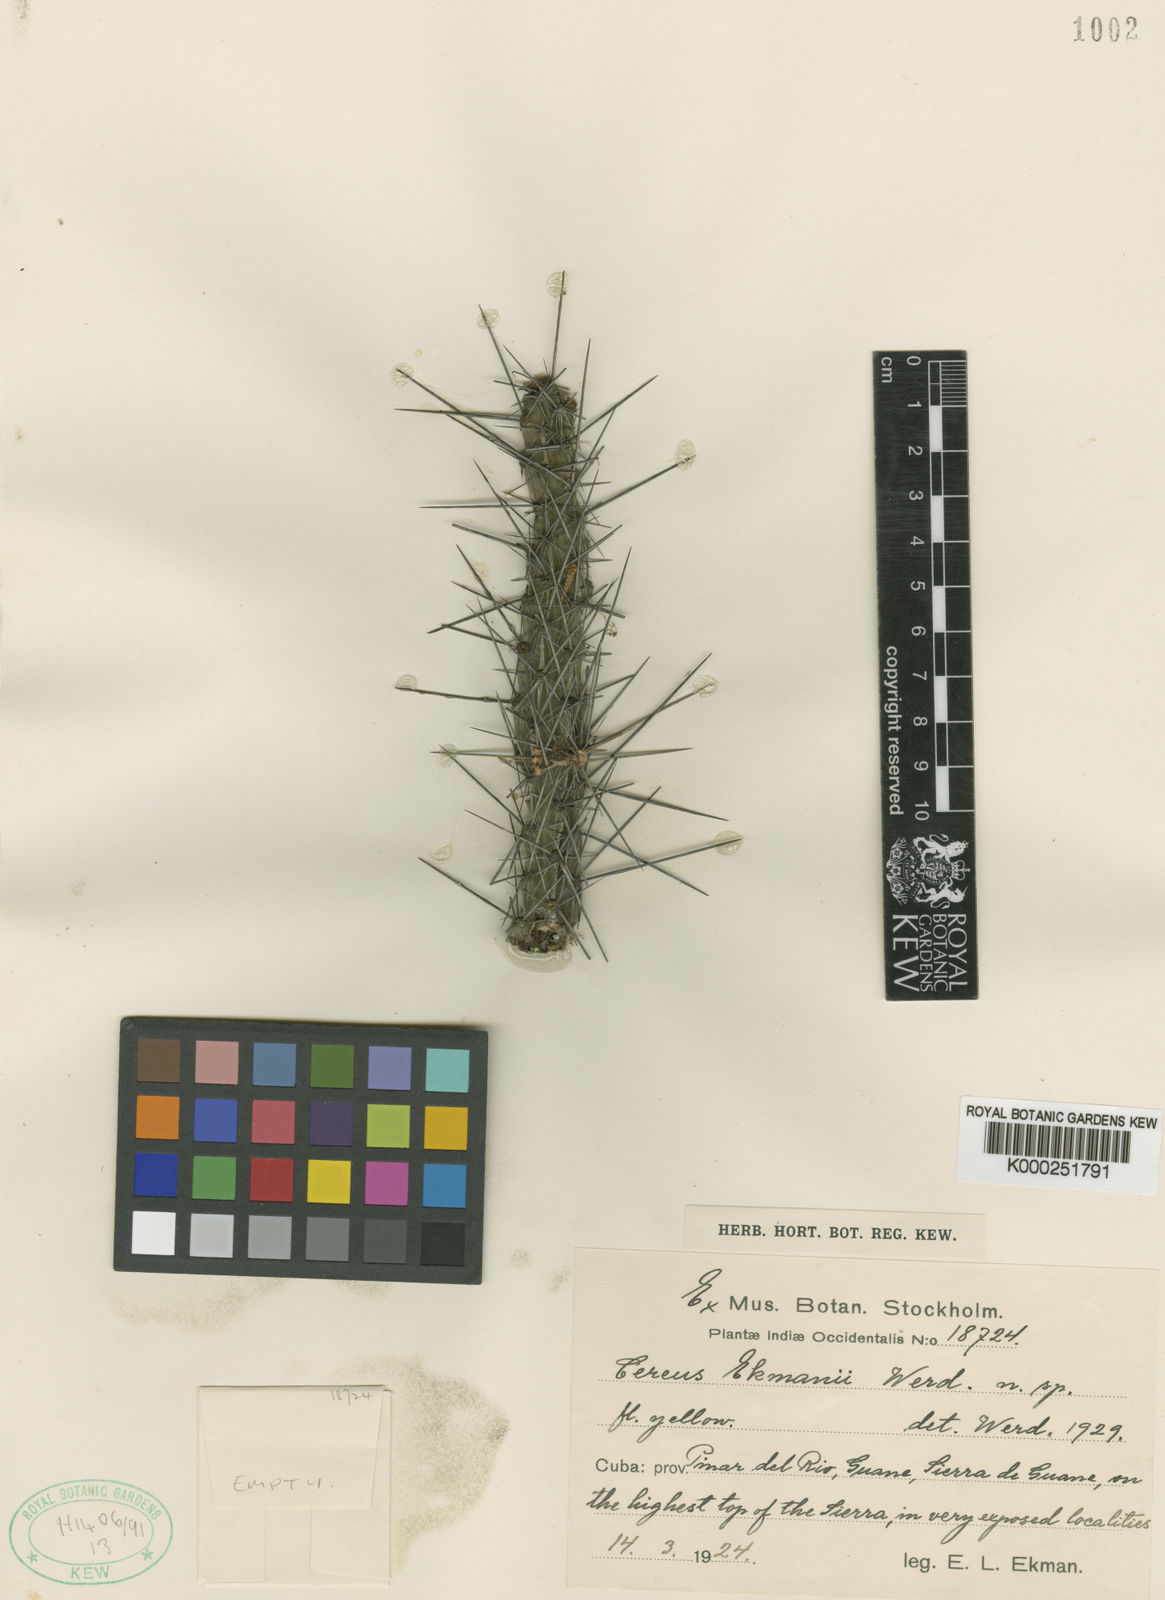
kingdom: Plantae
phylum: Tracheophyta
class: Magnoliopsida
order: Caryophyllales
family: Cactaceae
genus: Leptocereus
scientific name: Leptocereus assurgens
